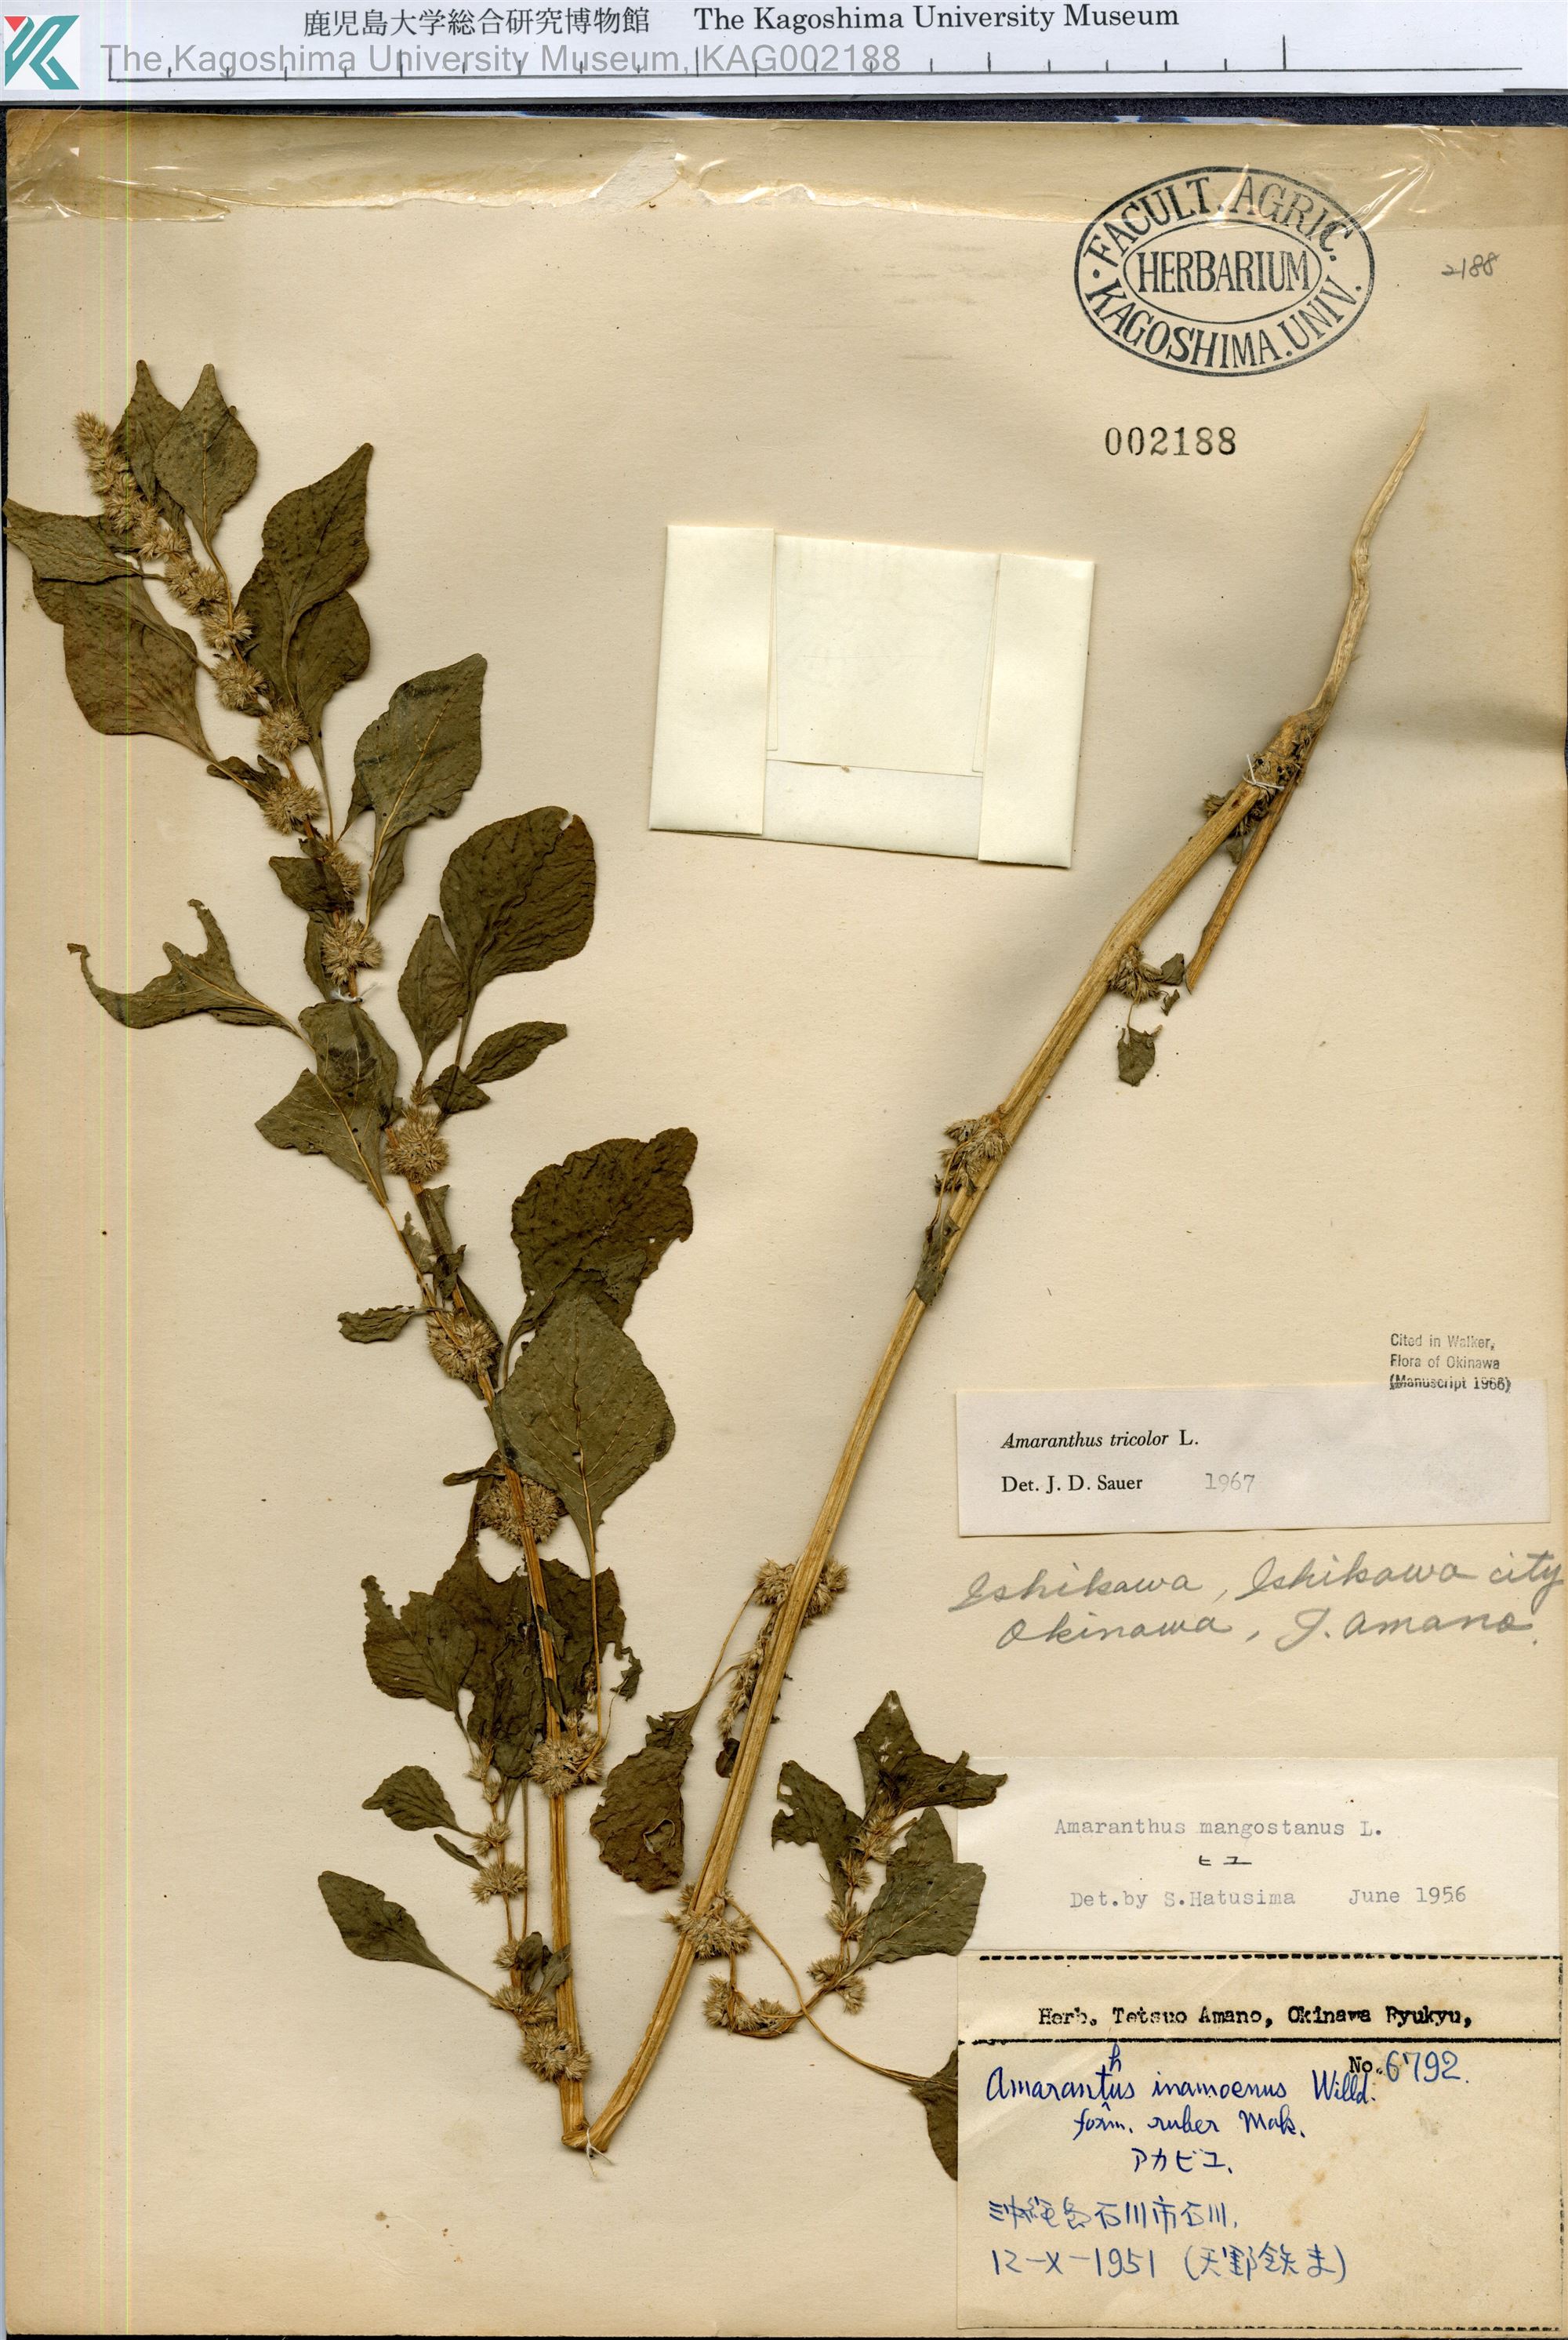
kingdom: Plantae
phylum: Tracheophyta
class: Magnoliopsida
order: Caryophyllales
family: Amaranthaceae
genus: Amaranthus
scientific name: Amaranthus tricolor
